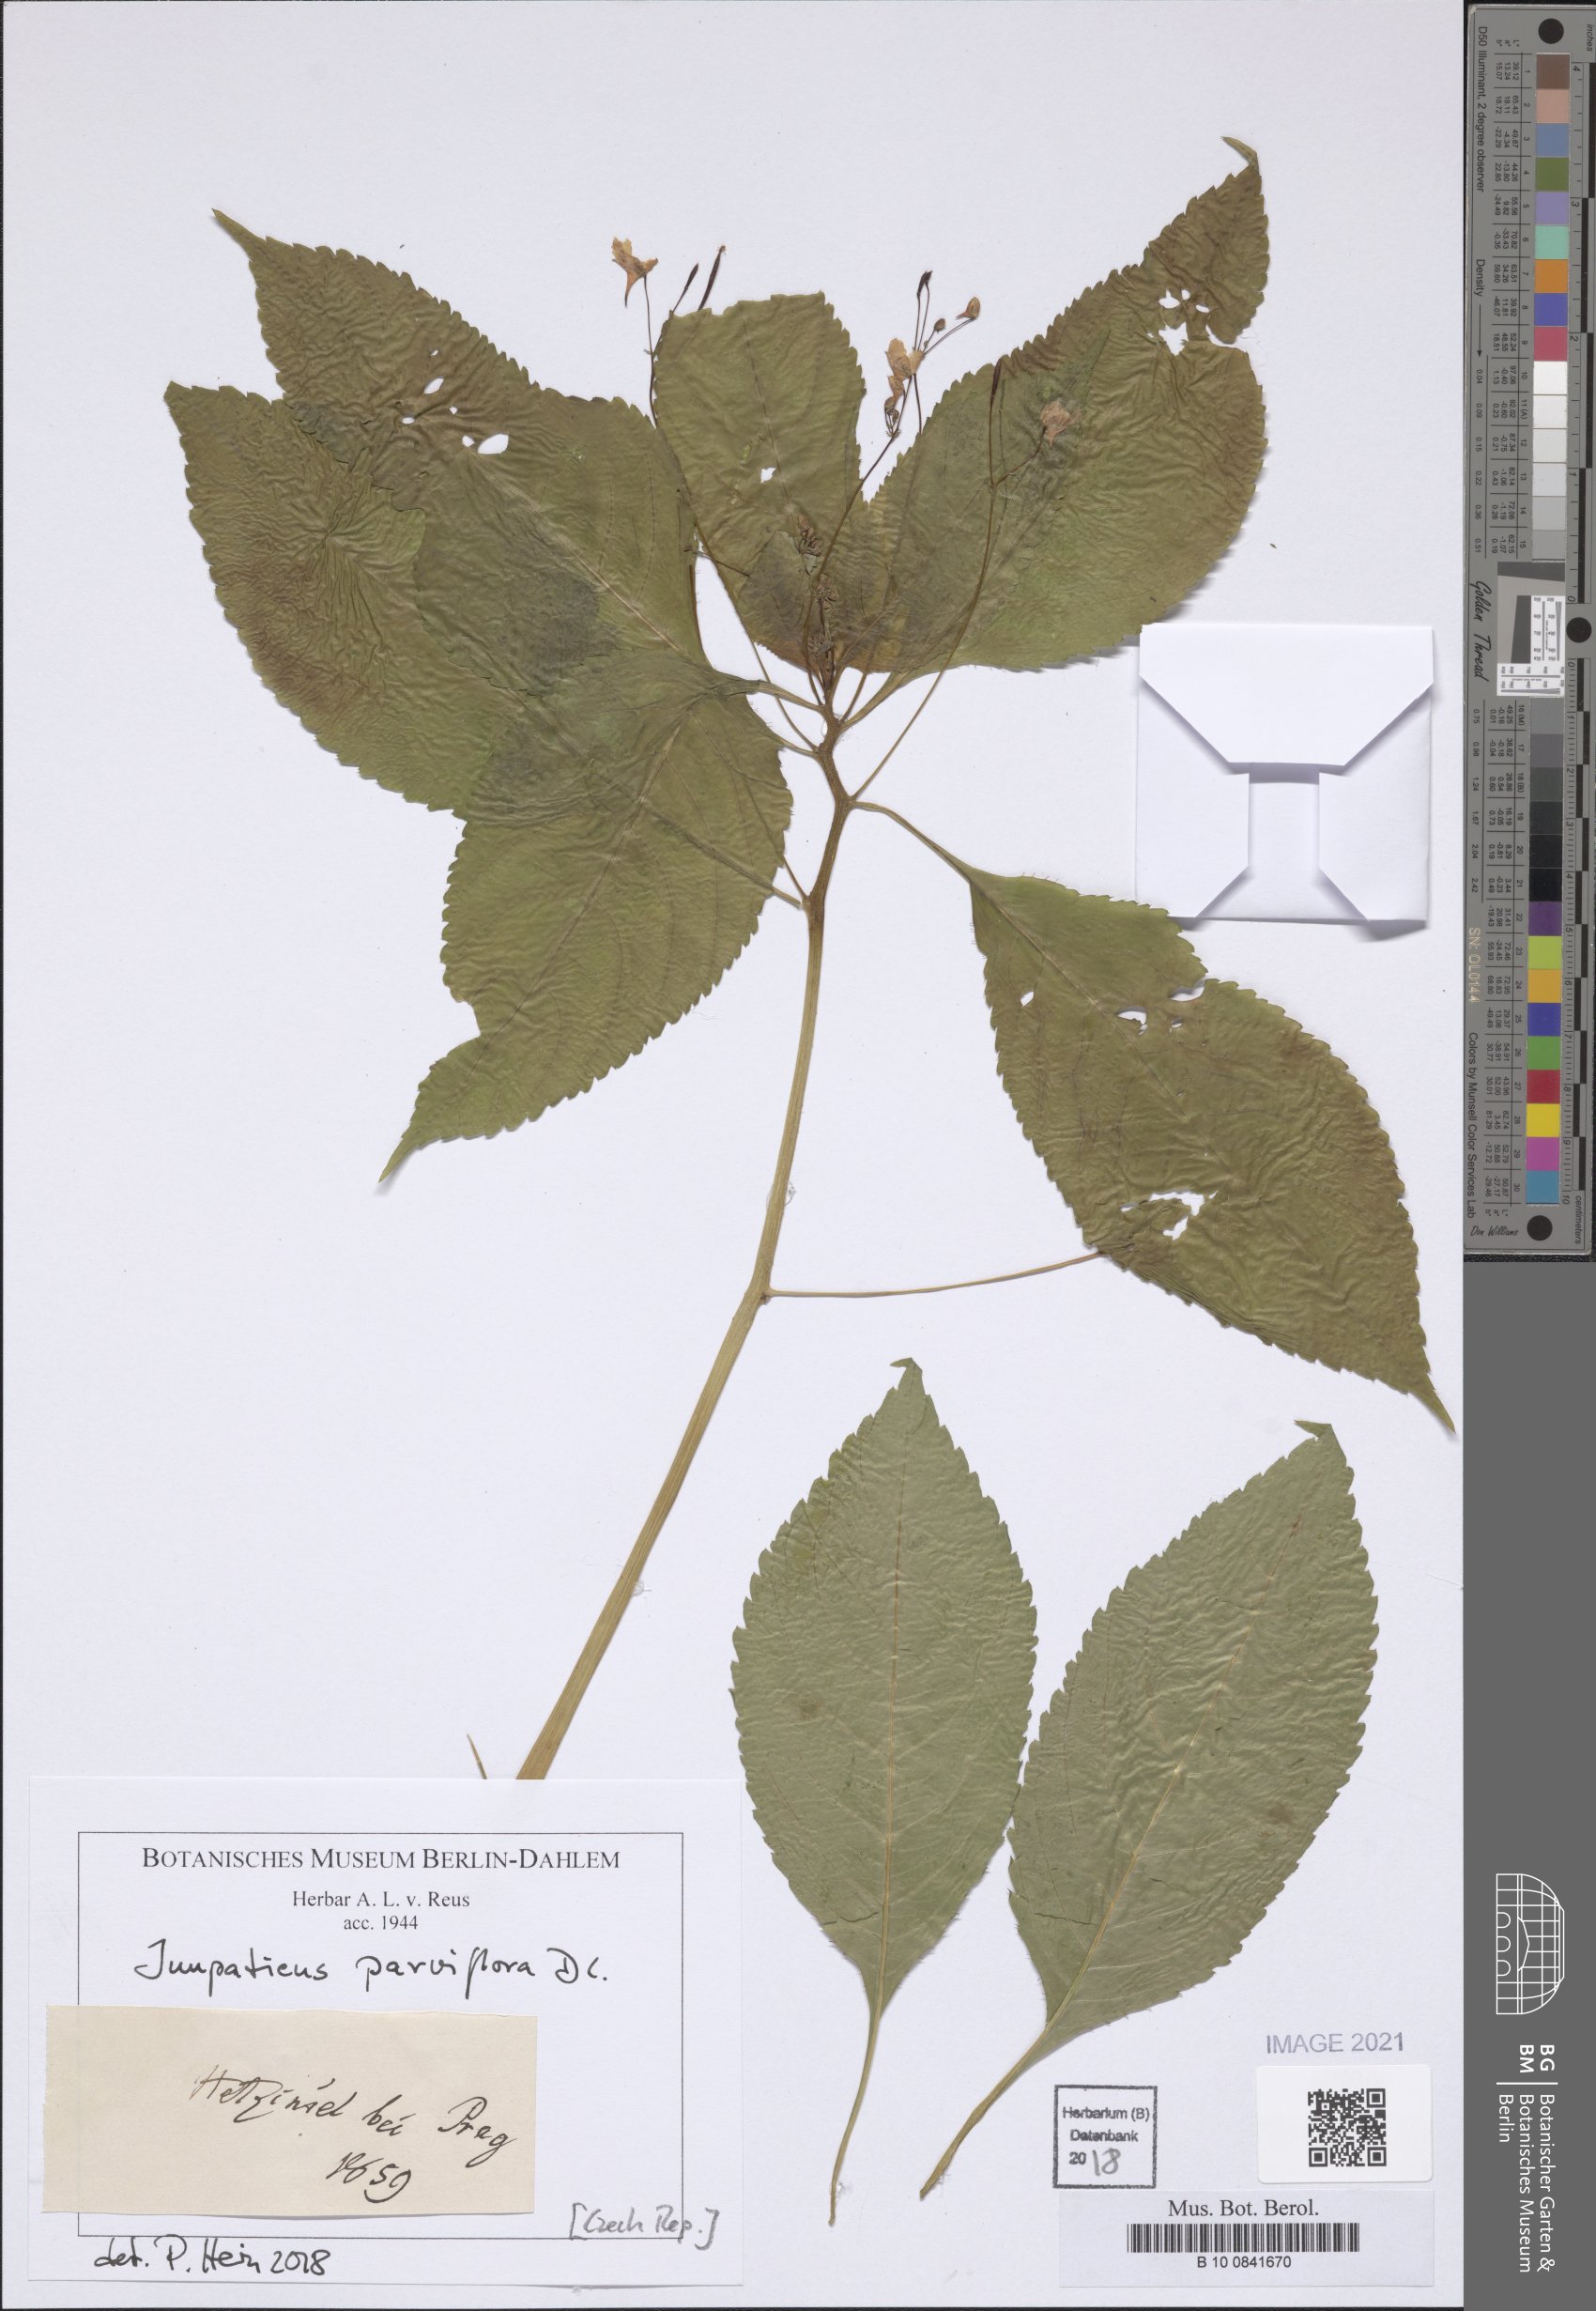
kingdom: Plantae
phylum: Tracheophyta
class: Magnoliopsida
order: Ericales
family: Balsaminaceae
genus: Impatiens
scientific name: Impatiens parviflora
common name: Small balsam
